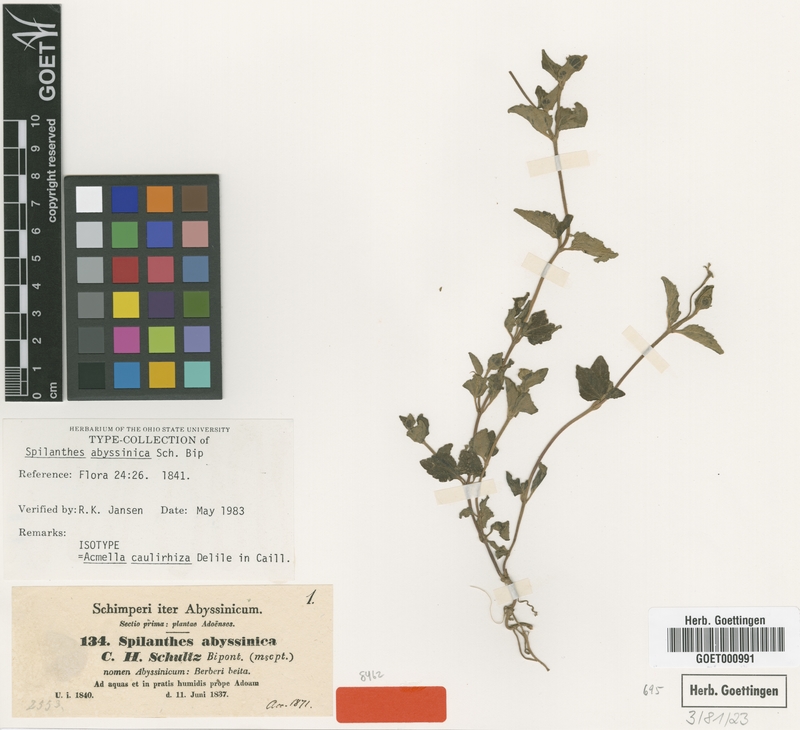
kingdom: Plantae
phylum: Tracheophyta
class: Magnoliopsida
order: Asterales
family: Asteraceae
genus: Acmella
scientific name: Acmella caulirhiza
